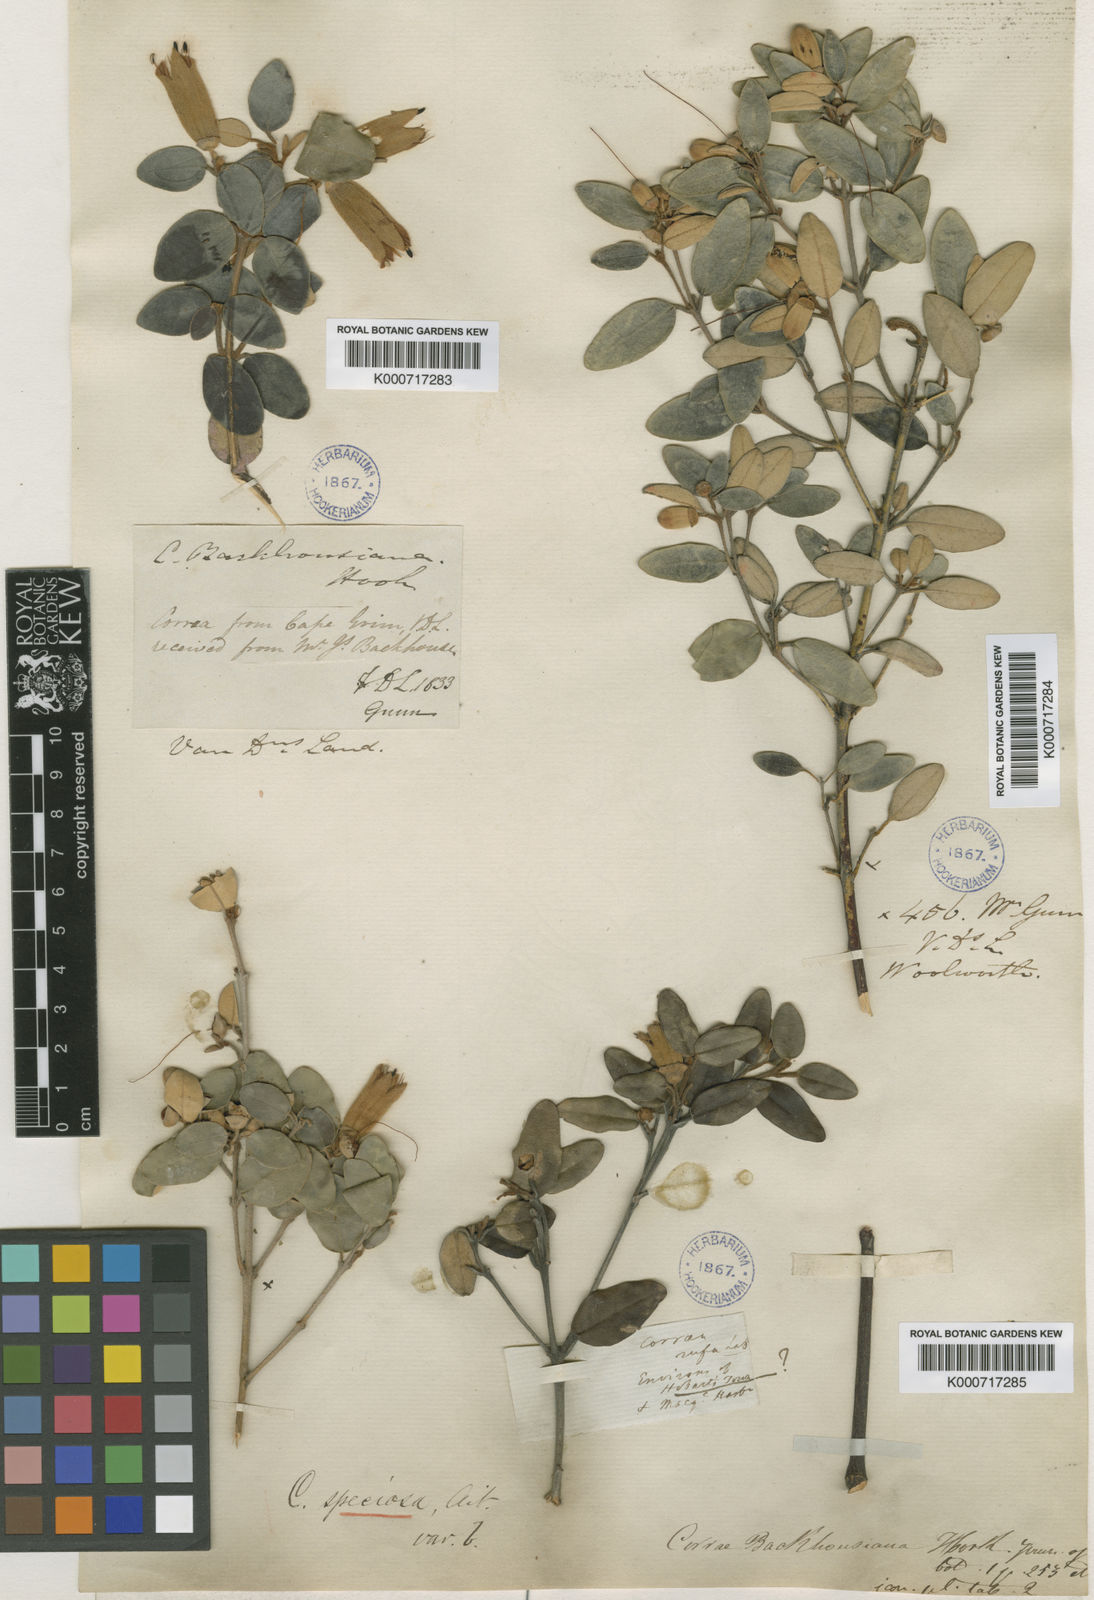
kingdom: Plantae
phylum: Tracheophyta
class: Magnoliopsida
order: Sapindales
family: Rutaceae
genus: Correa
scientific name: Correa
